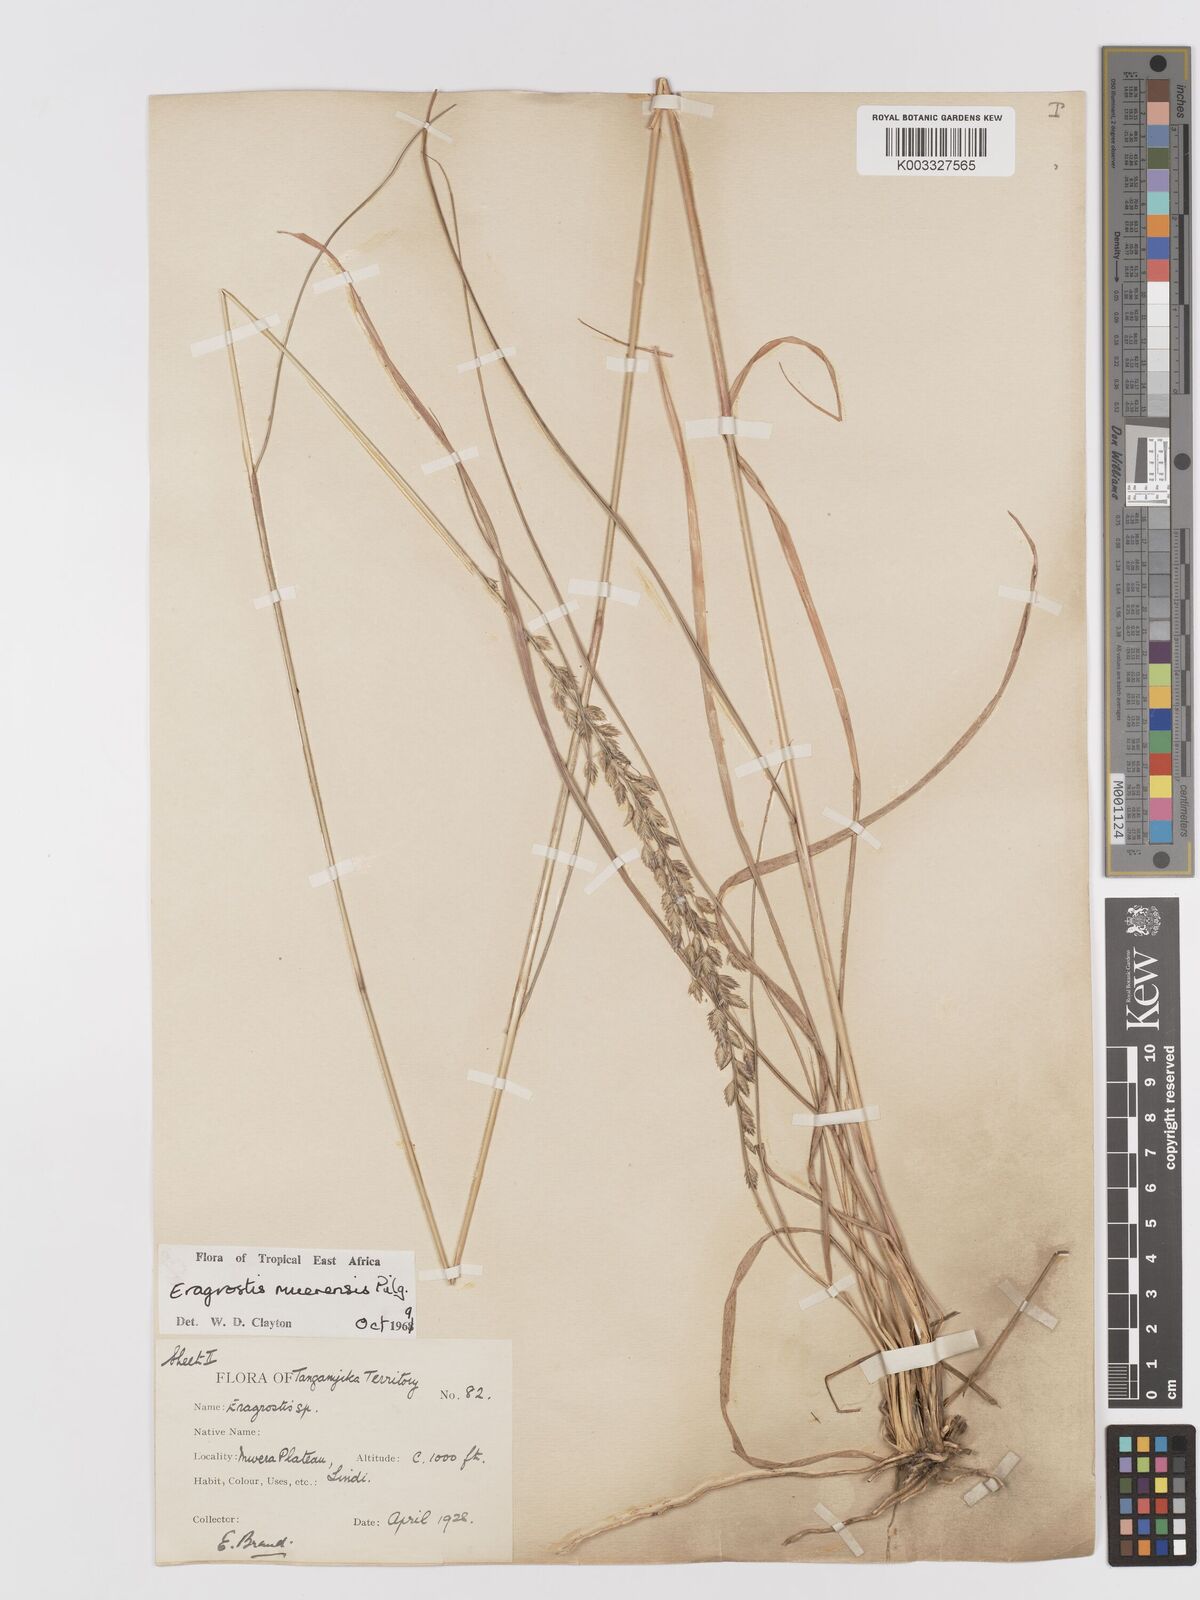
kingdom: Plantae
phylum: Tracheophyta
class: Liliopsida
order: Poales
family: Poaceae
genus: Eragrostis
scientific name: Eragrostis muerensis
